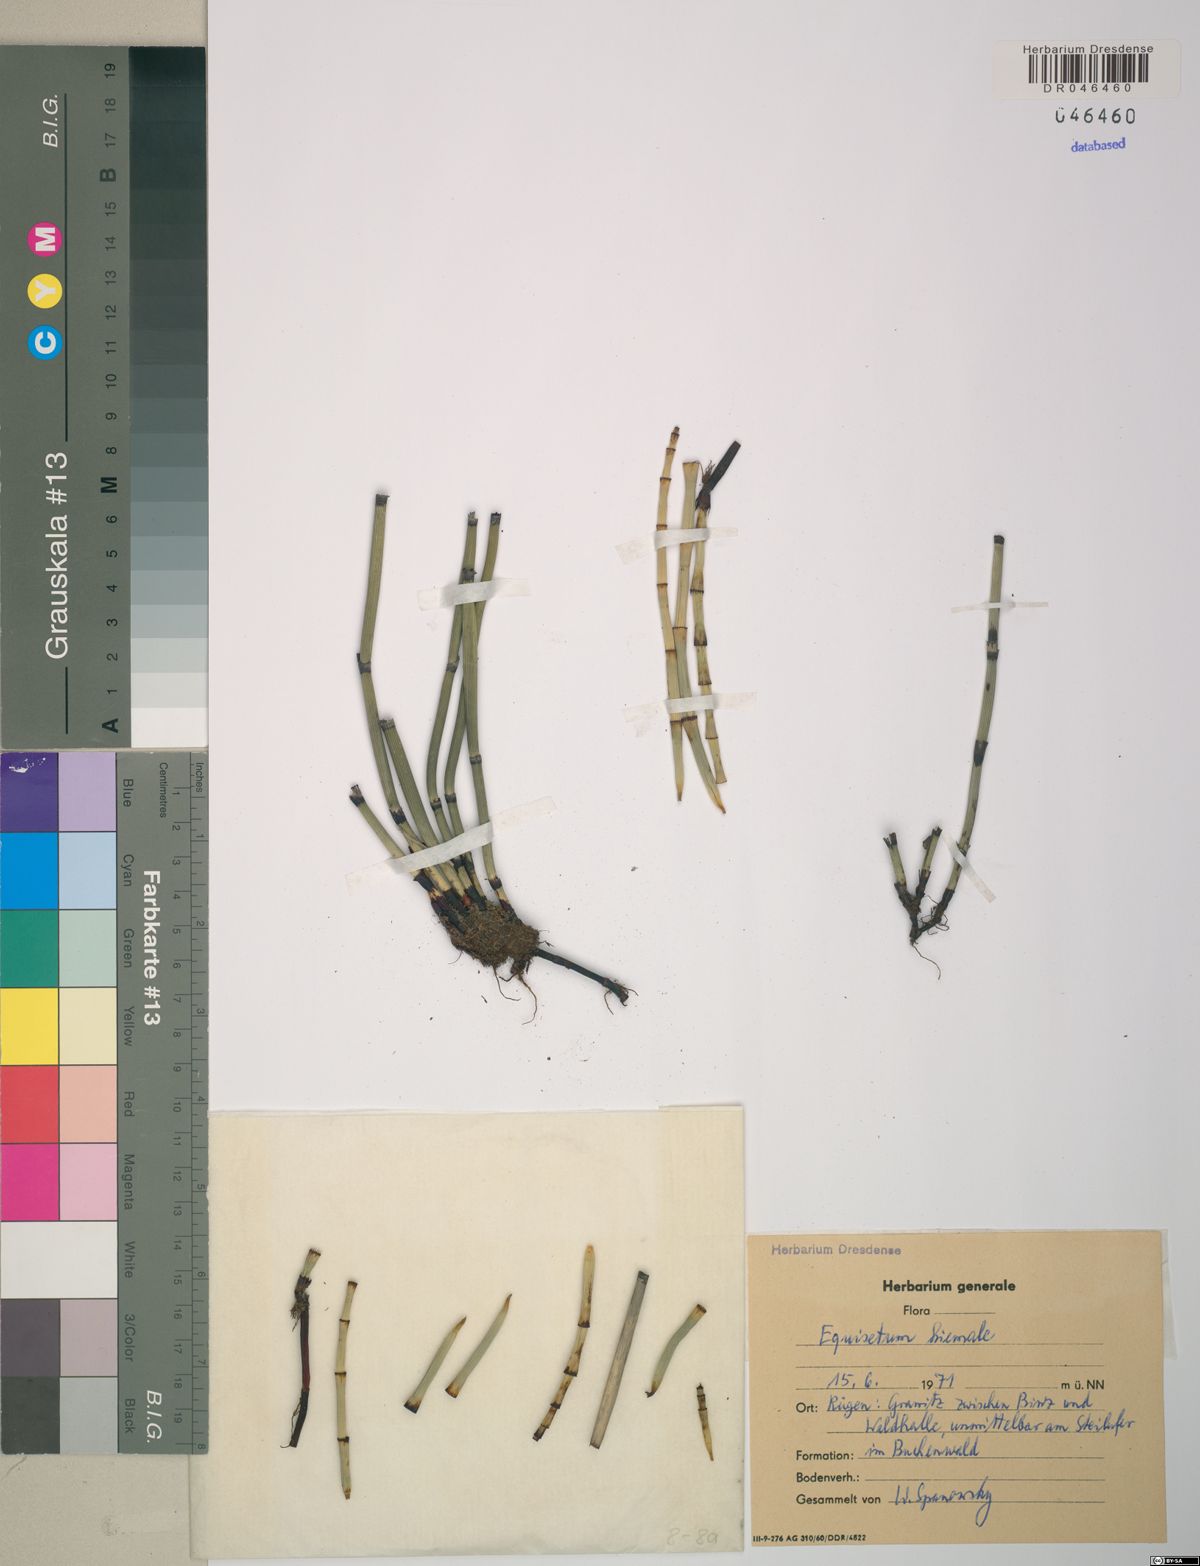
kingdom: Plantae
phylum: Tracheophyta
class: Polypodiopsida
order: Equisetales
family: Equisetaceae
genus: Equisetum
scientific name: Equisetum hyemale
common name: Rough horsetail
